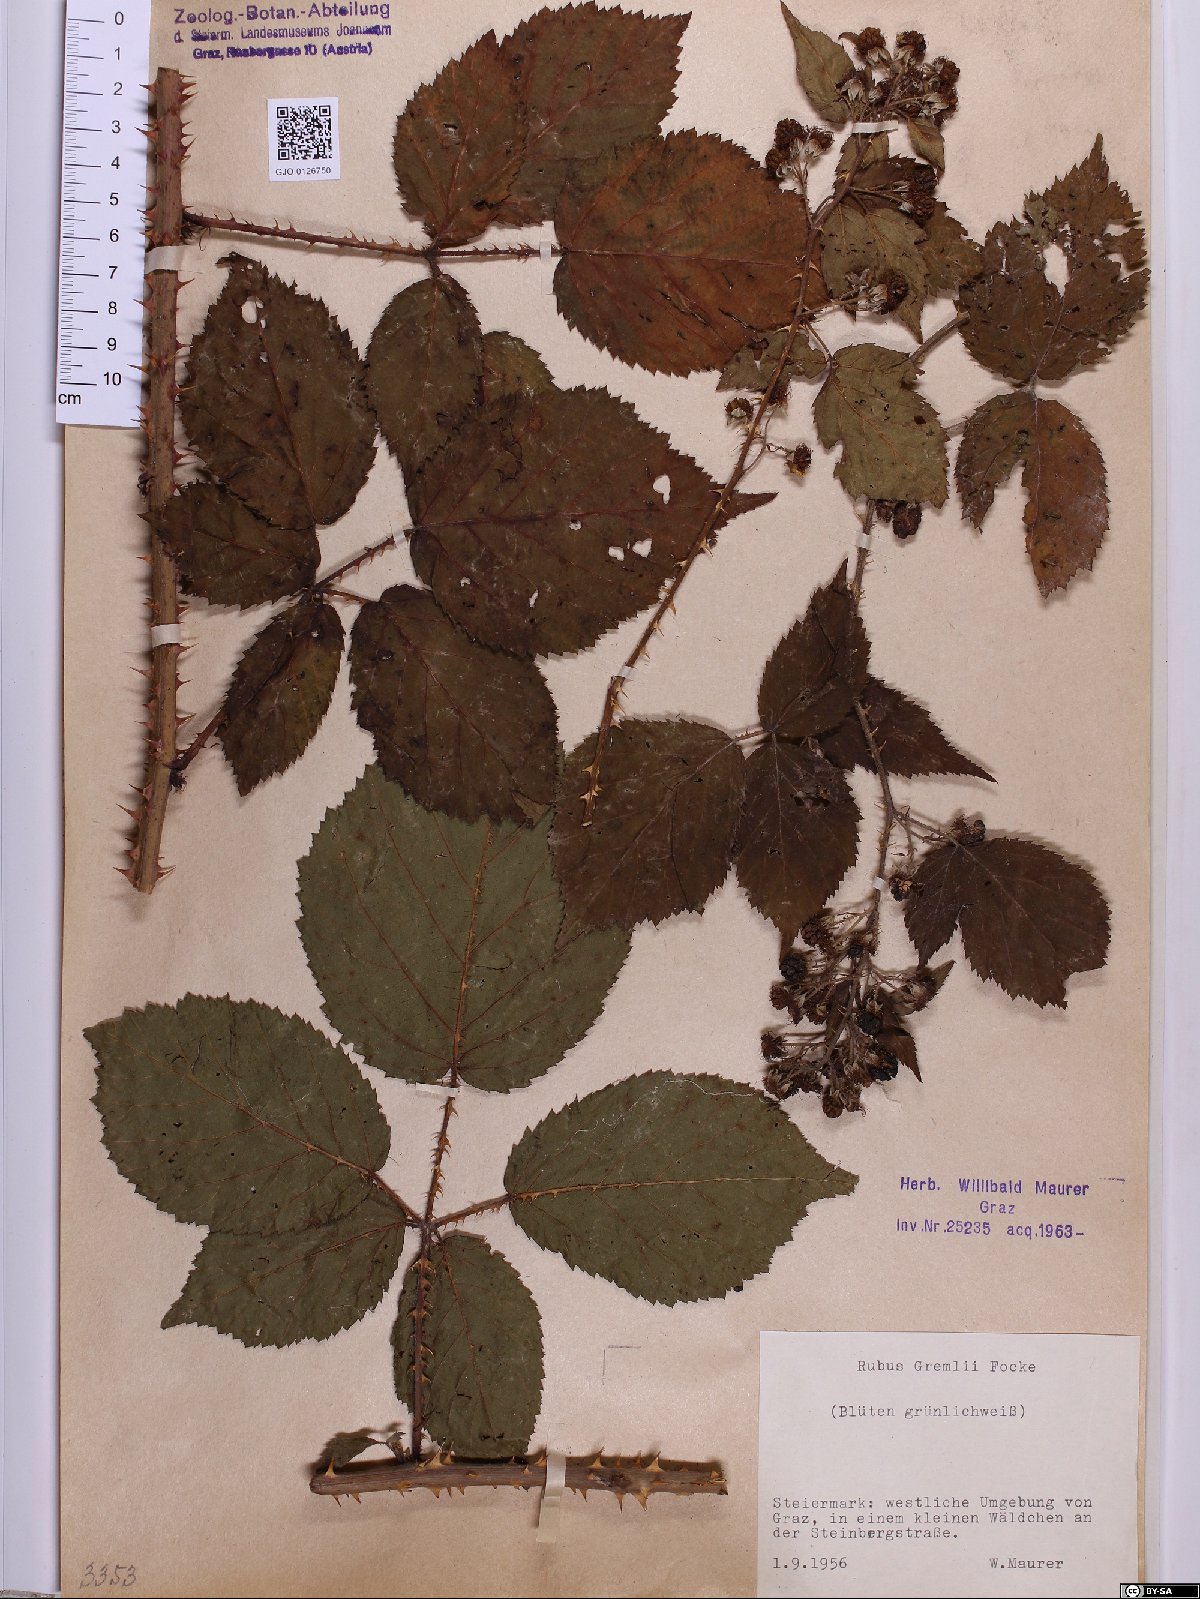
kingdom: Plantae
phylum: Tracheophyta
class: Magnoliopsida
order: Rosales
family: Rosaceae
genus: Rubus
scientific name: Rubus gremlii
